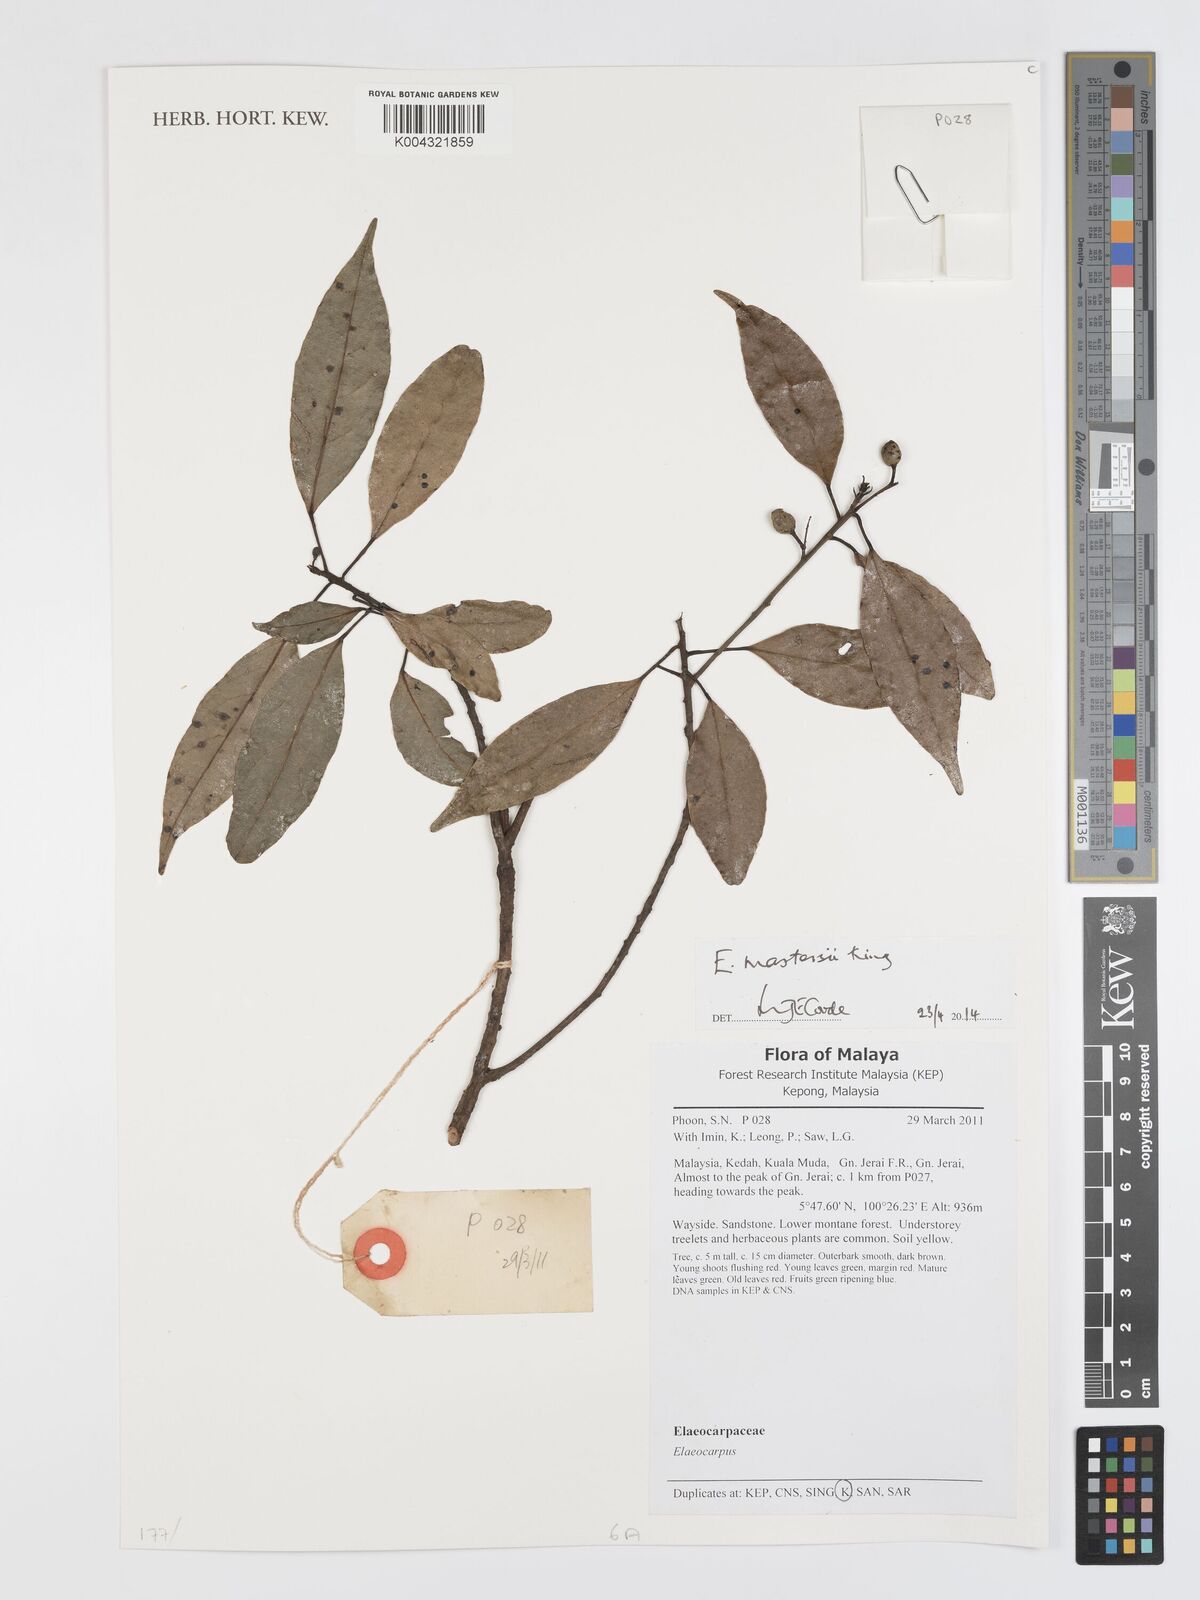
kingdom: Plantae
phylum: Tracheophyta
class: Magnoliopsida
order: Oxalidales
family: Elaeocarpaceae
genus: Elaeocarpus
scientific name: Elaeocarpus mastersii
